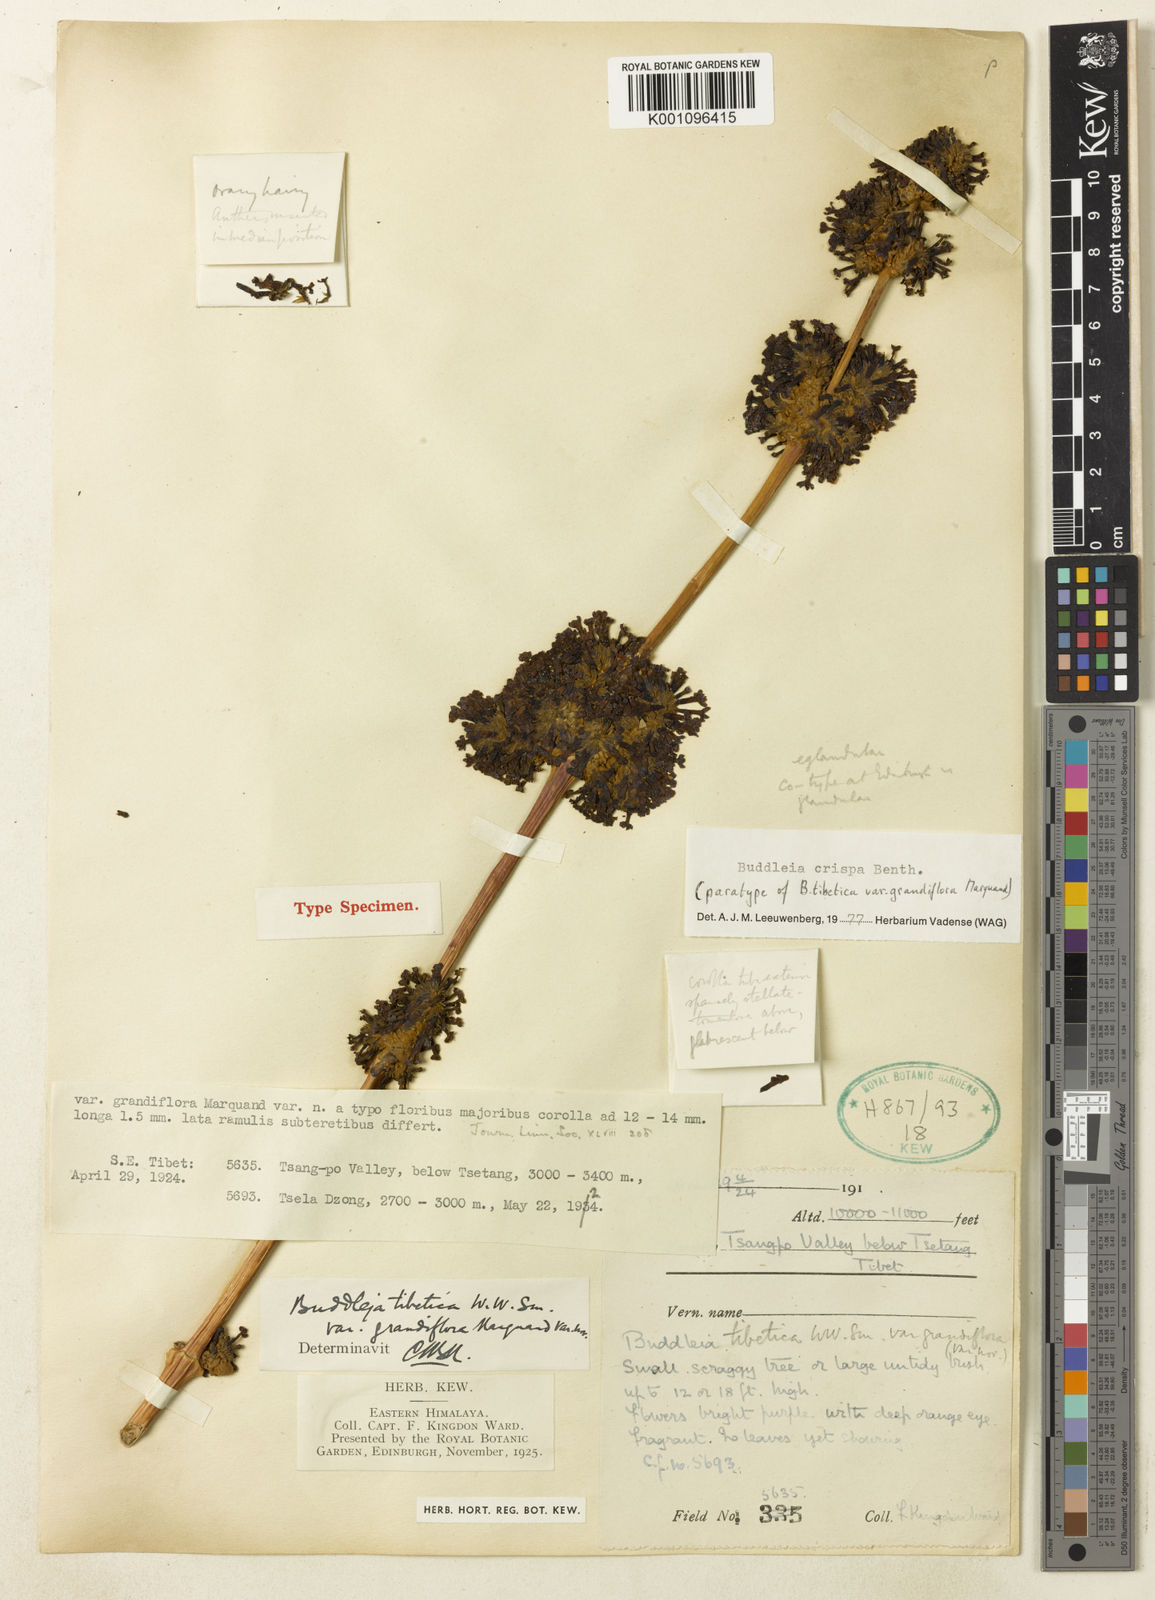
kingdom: Plantae
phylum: Tracheophyta
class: Magnoliopsida
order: Lamiales
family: Scrophulariaceae
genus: Buddleja
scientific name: Buddleja crispa
